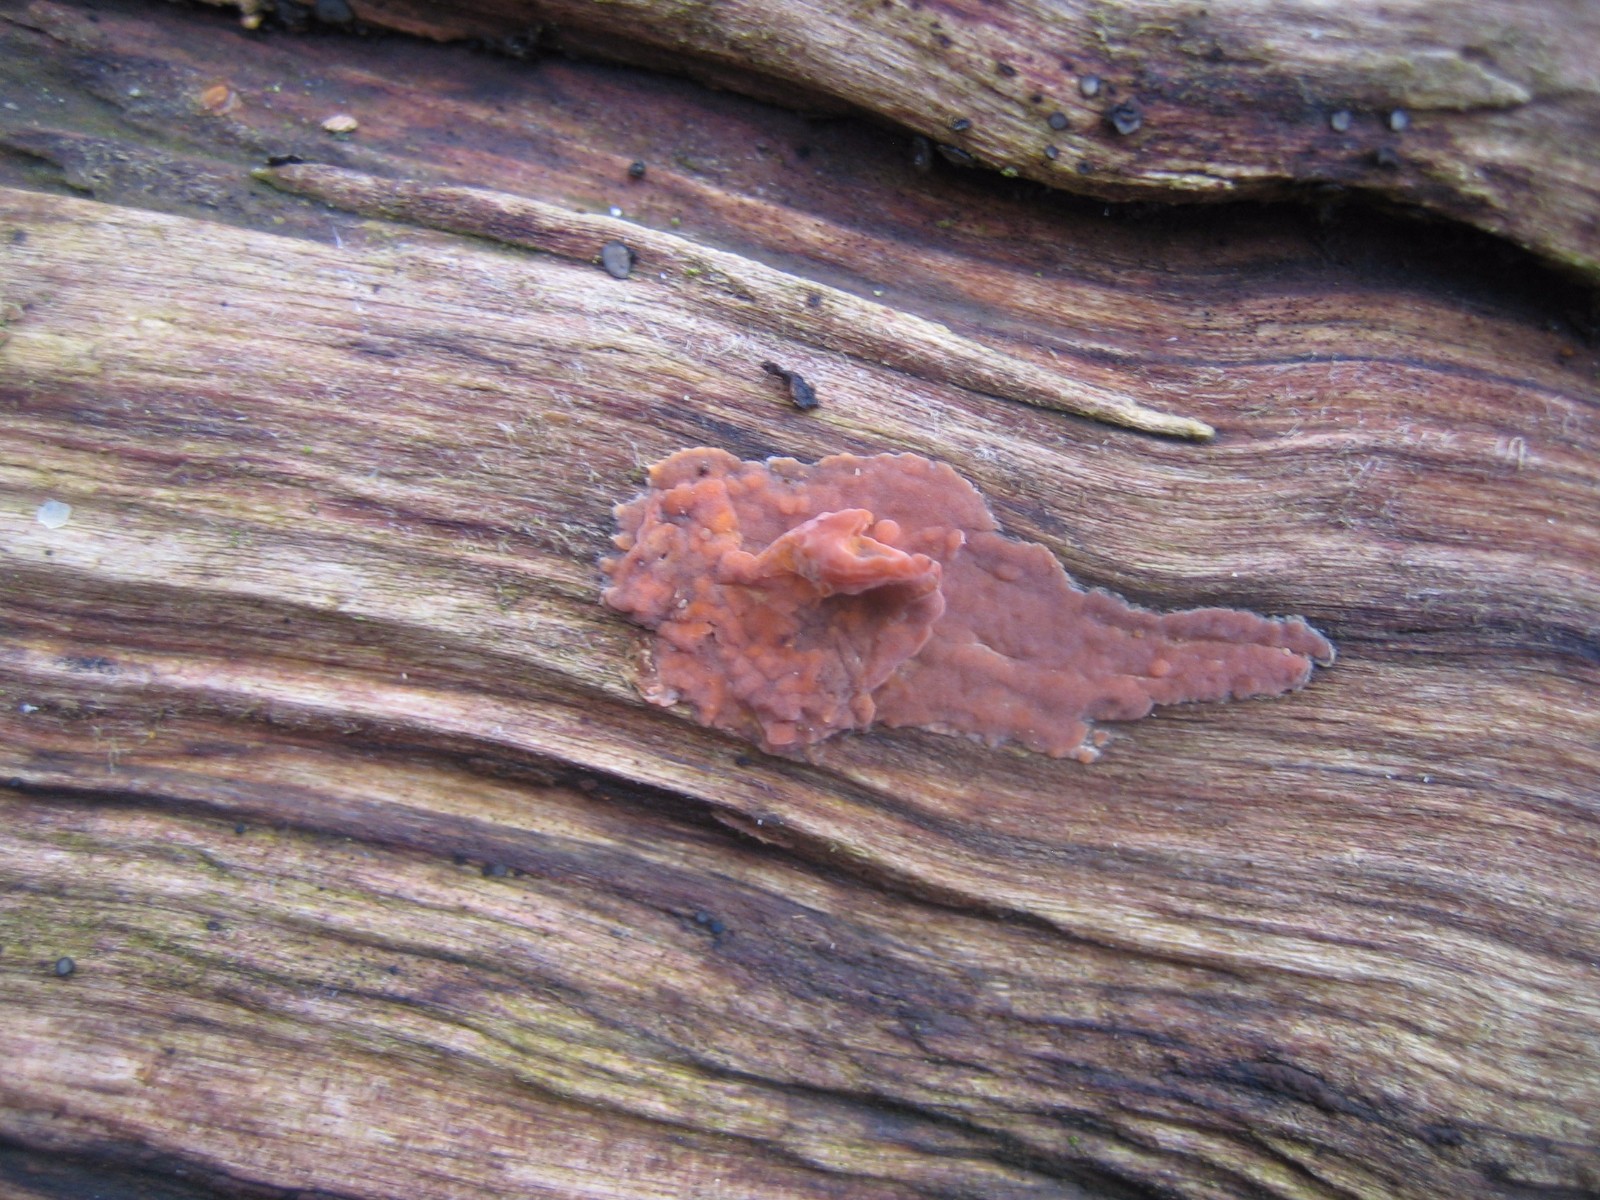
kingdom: Fungi
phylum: Basidiomycota
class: Agaricomycetes
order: Russulales
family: Peniophoraceae
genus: Peniophora
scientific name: Peniophora incarnata
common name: laksefarvet voksskind
